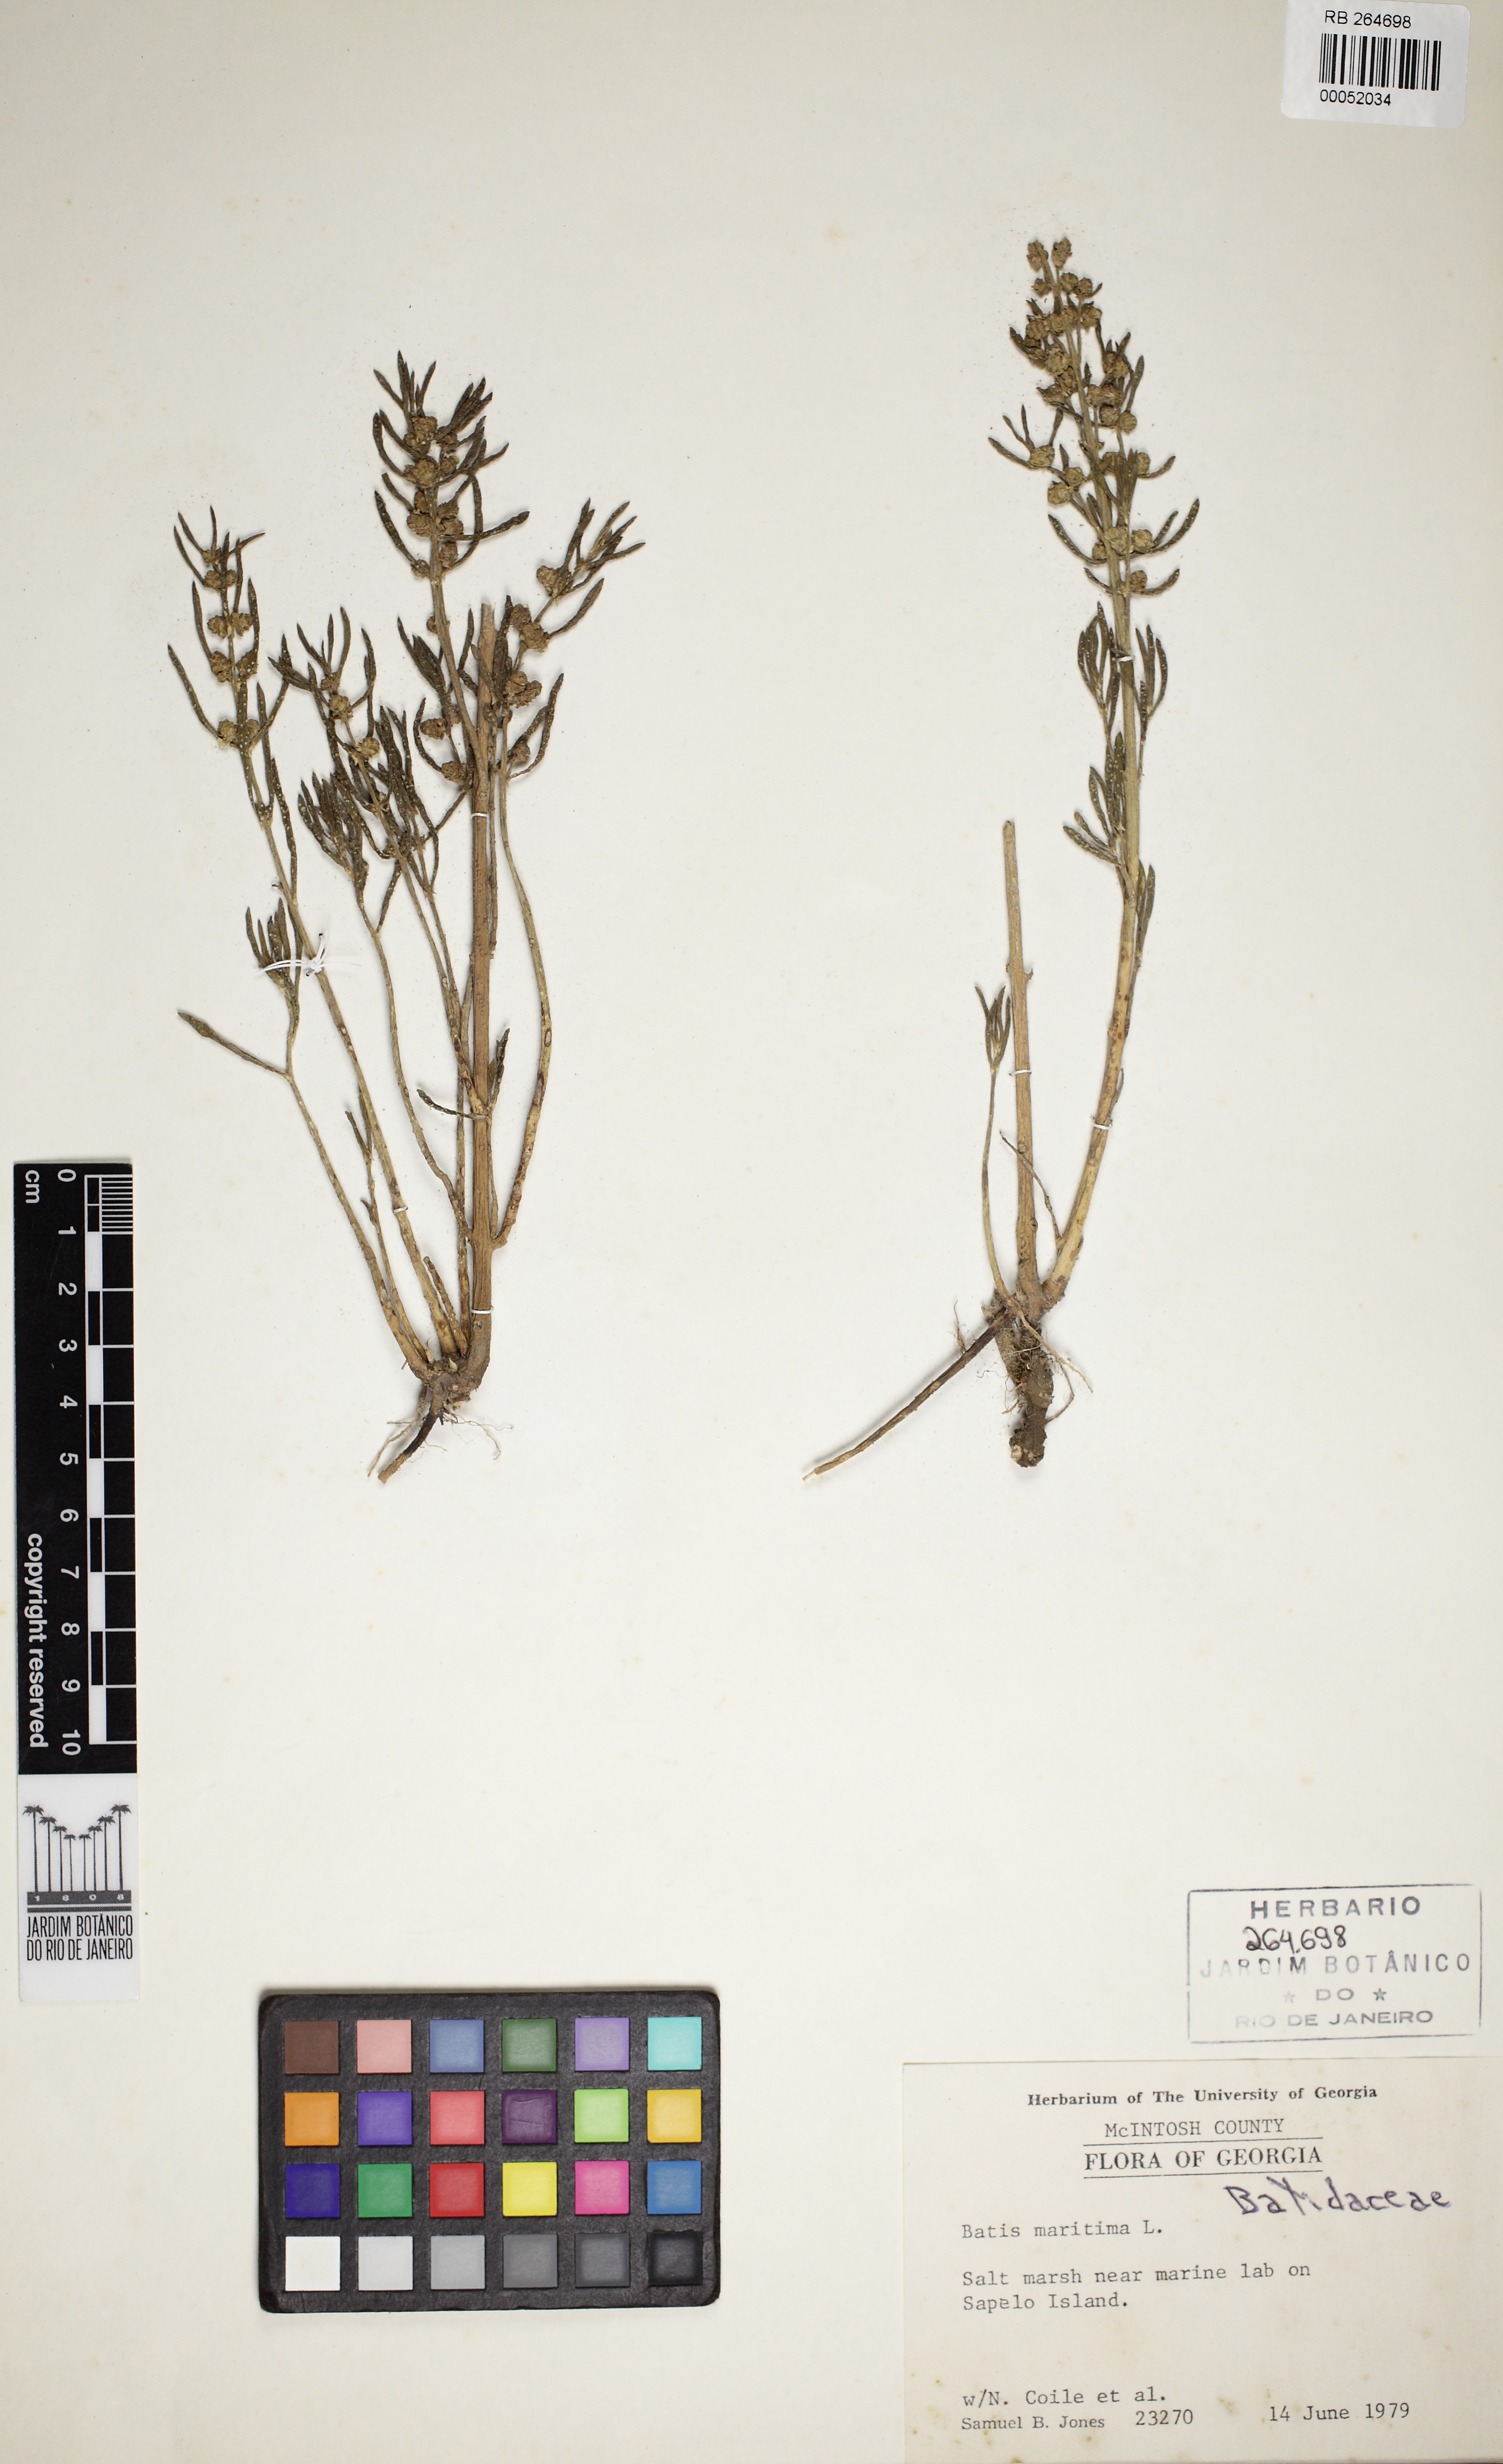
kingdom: Plantae
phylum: Tracheophyta
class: Magnoliopsida
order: Brassicales
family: Bataceae
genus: Batis
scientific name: Batis maritima
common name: Turtleweed
